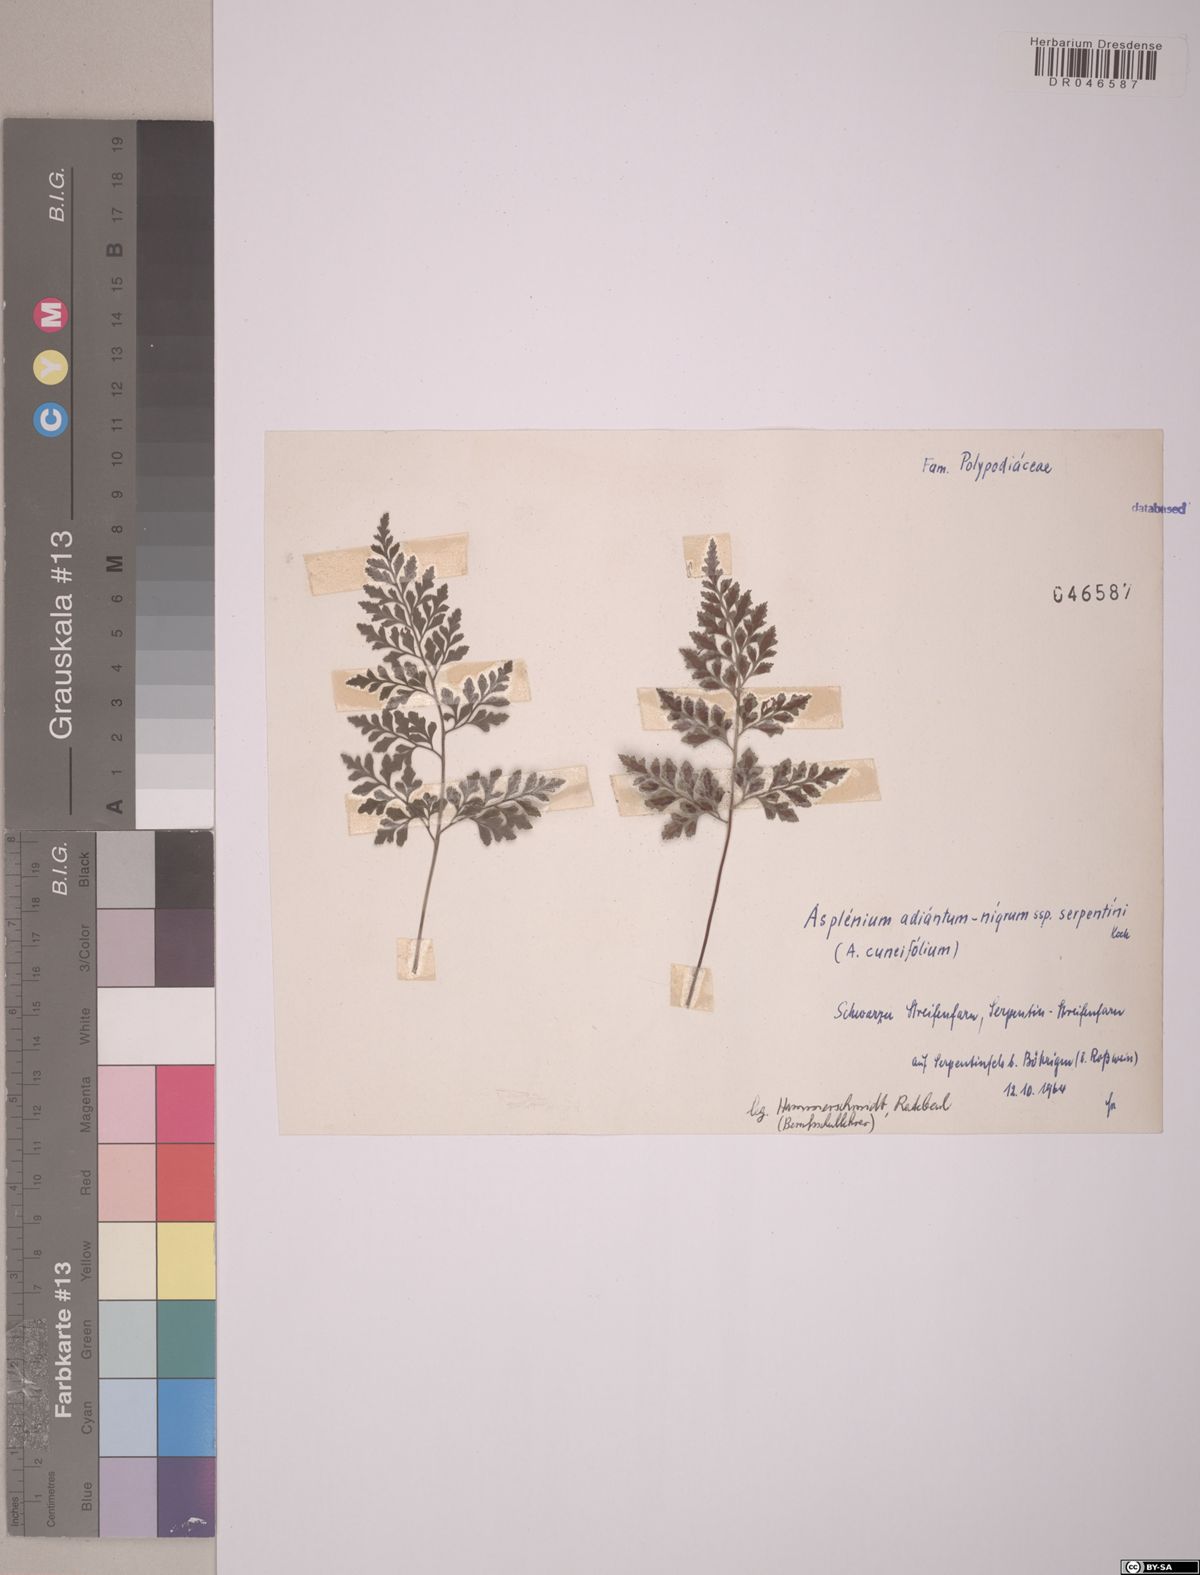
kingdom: Plantae
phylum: Tracheophyta
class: Polypodiopsida
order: Polypodiales
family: Aspleniaceae
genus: Asplenium
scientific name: Asplenium cuneifolium
